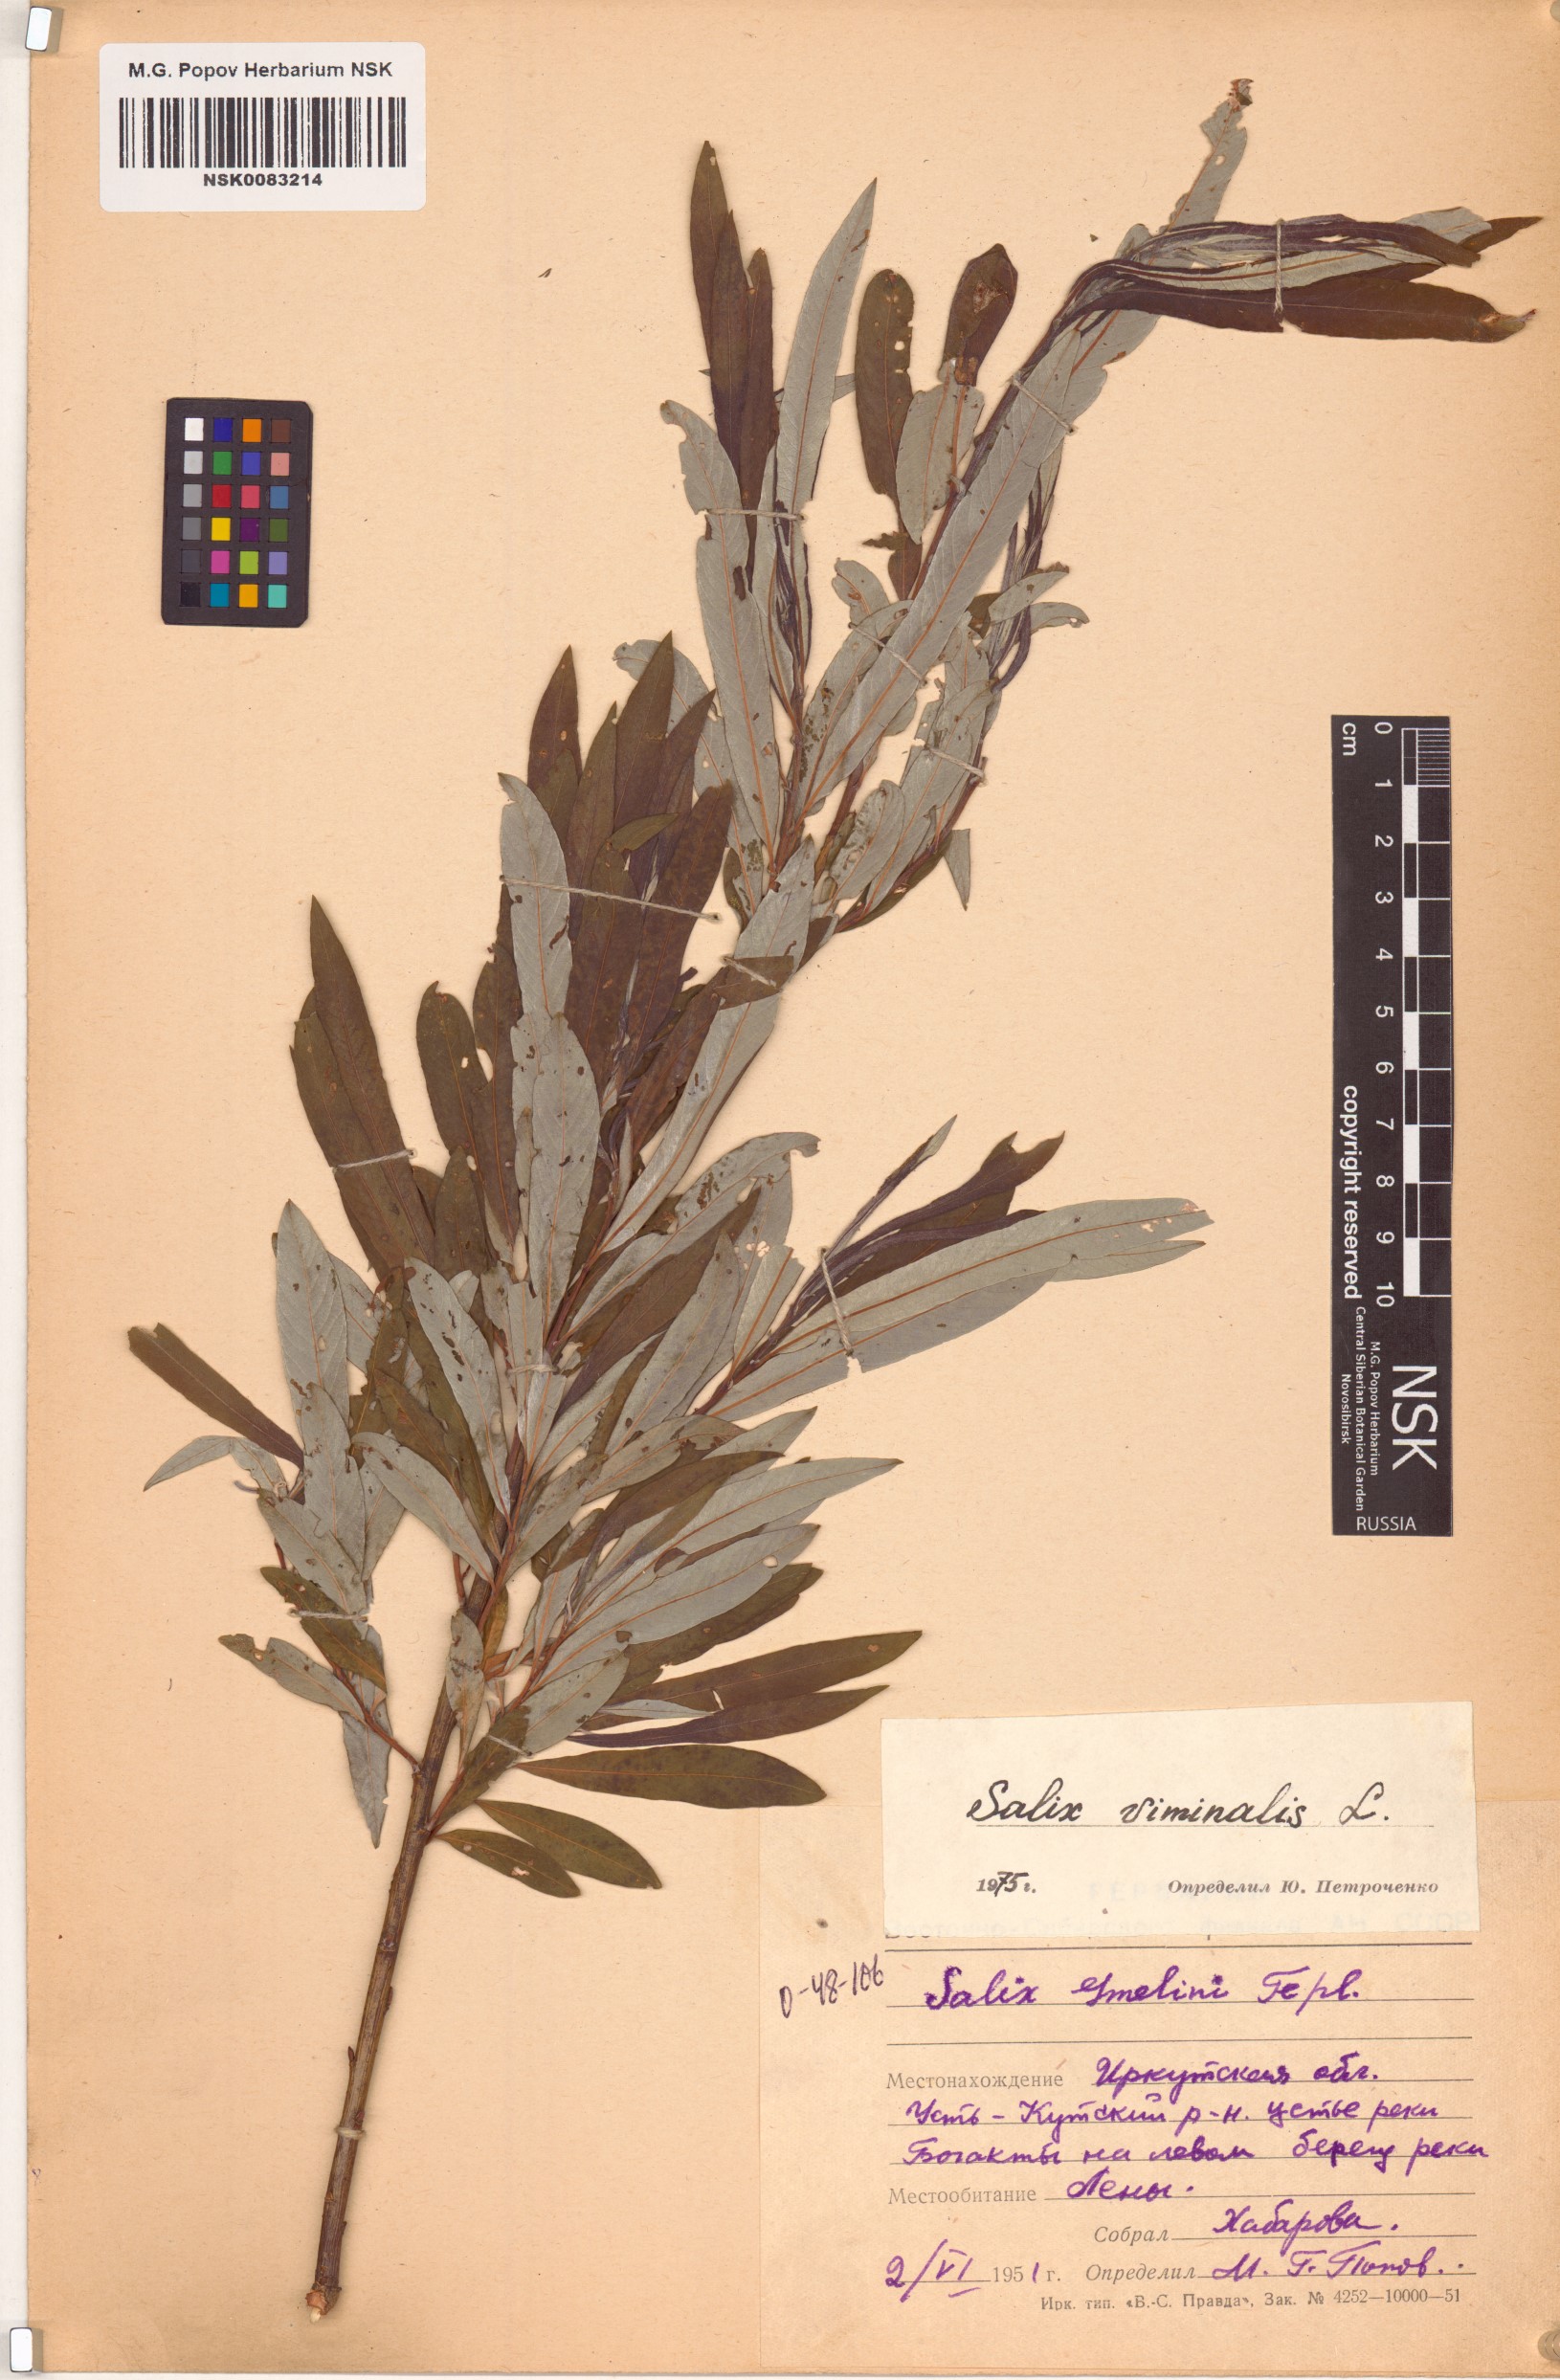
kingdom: Plantae
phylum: Tracheophyta
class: Magnoliopsida
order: Malpighiales
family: Salicaceae
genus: Salix
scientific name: Salix viminalis
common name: Osier
